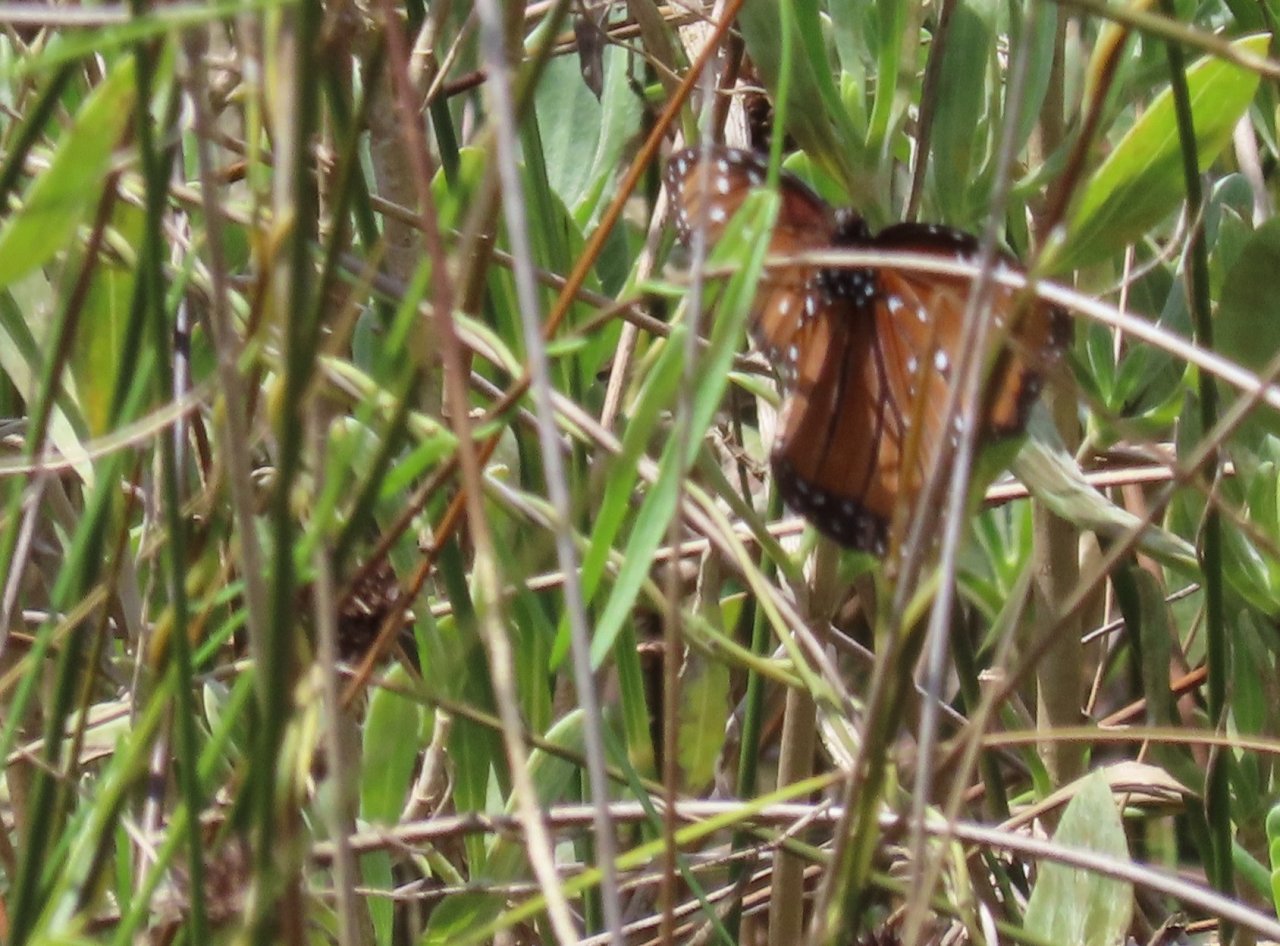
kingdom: Animalia
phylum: Arthropoda
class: Insecta
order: Lepidoptera
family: Nymphalidae
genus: Danaus
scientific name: Danaus gilippus
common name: Queen
